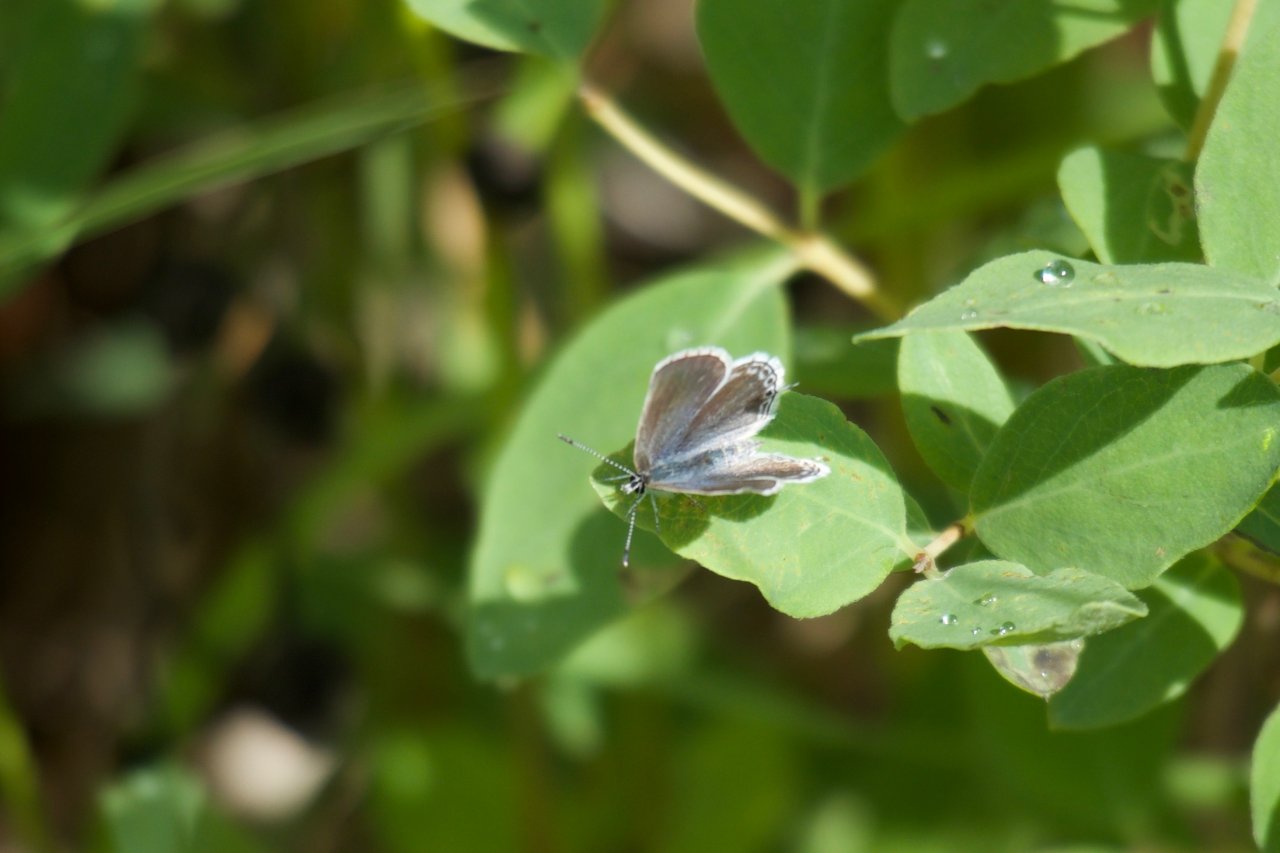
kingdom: Animalia
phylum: Arthropoda
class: Insecta
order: Lepidoptera
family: Lycaenidae
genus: Elkalyce
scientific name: Elkalyce amyntula
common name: Western Tailed-Blue
